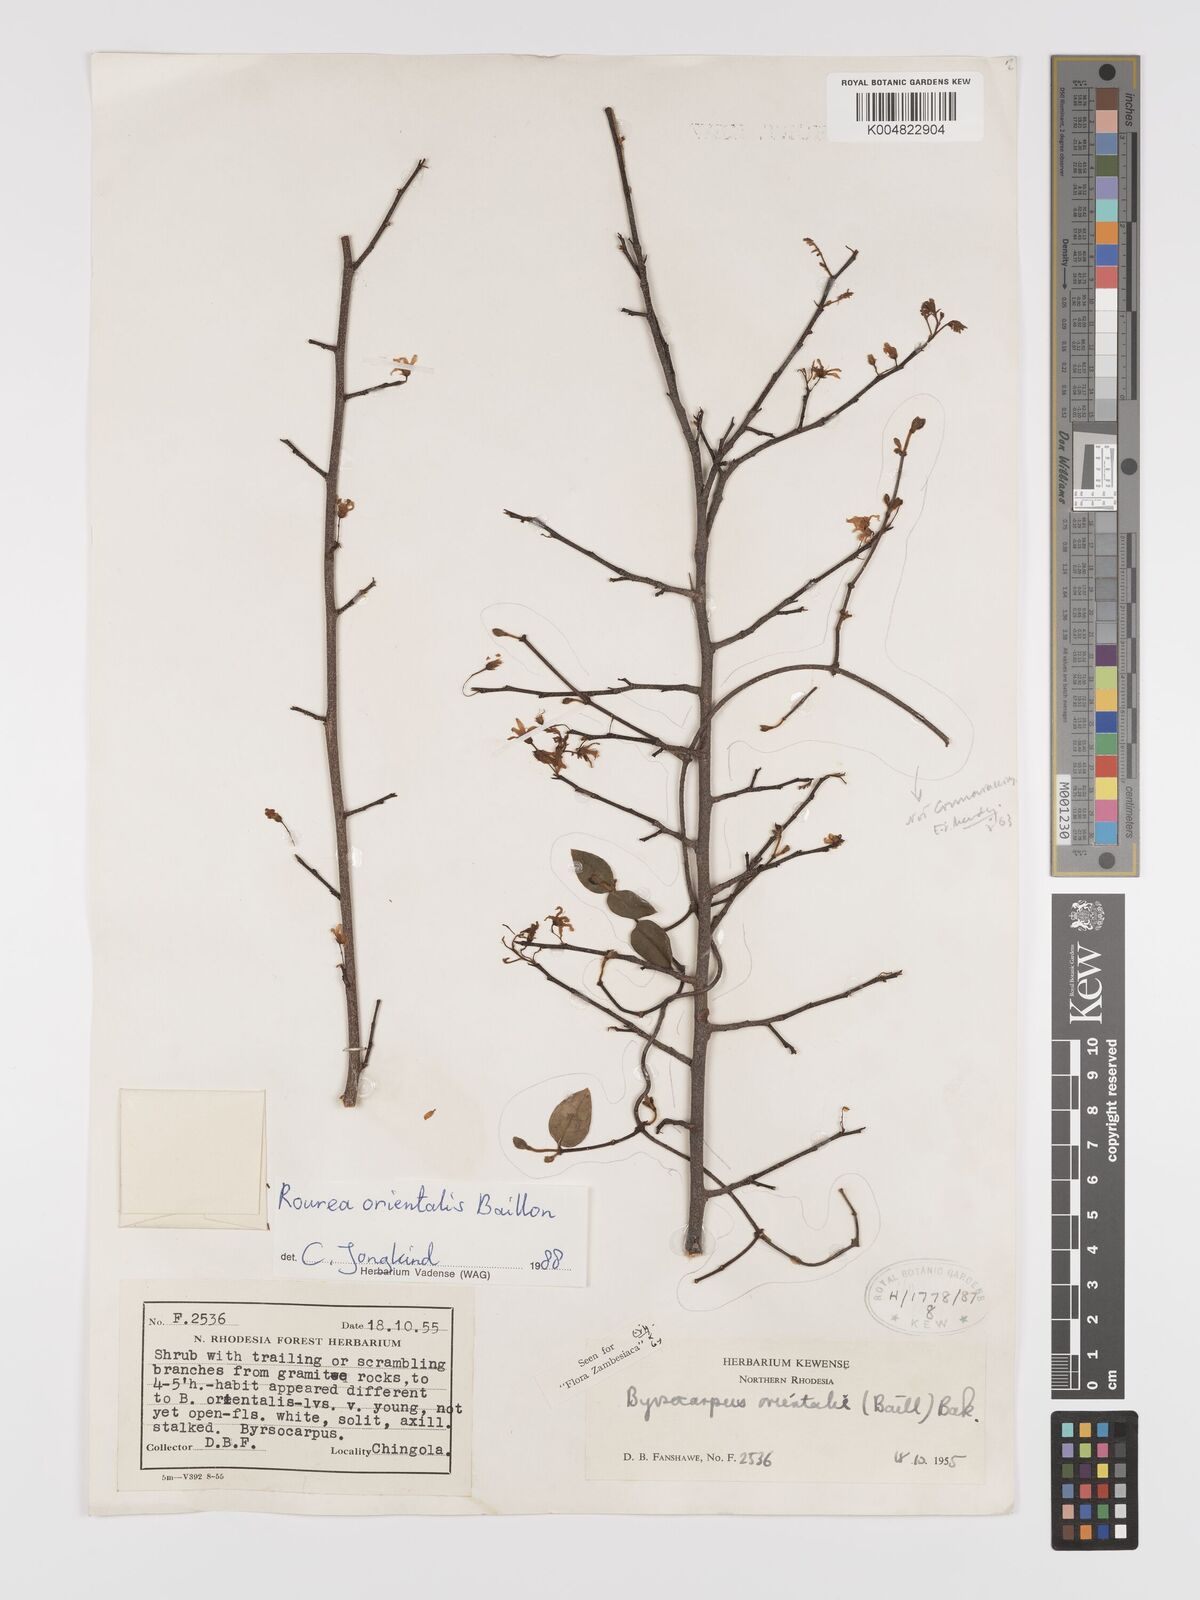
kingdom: Plantae
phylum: Tracheophyta
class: Magnoliopsida
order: Oxalidales
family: Connaraceae
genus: Rourea
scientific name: Rourea orientalis
